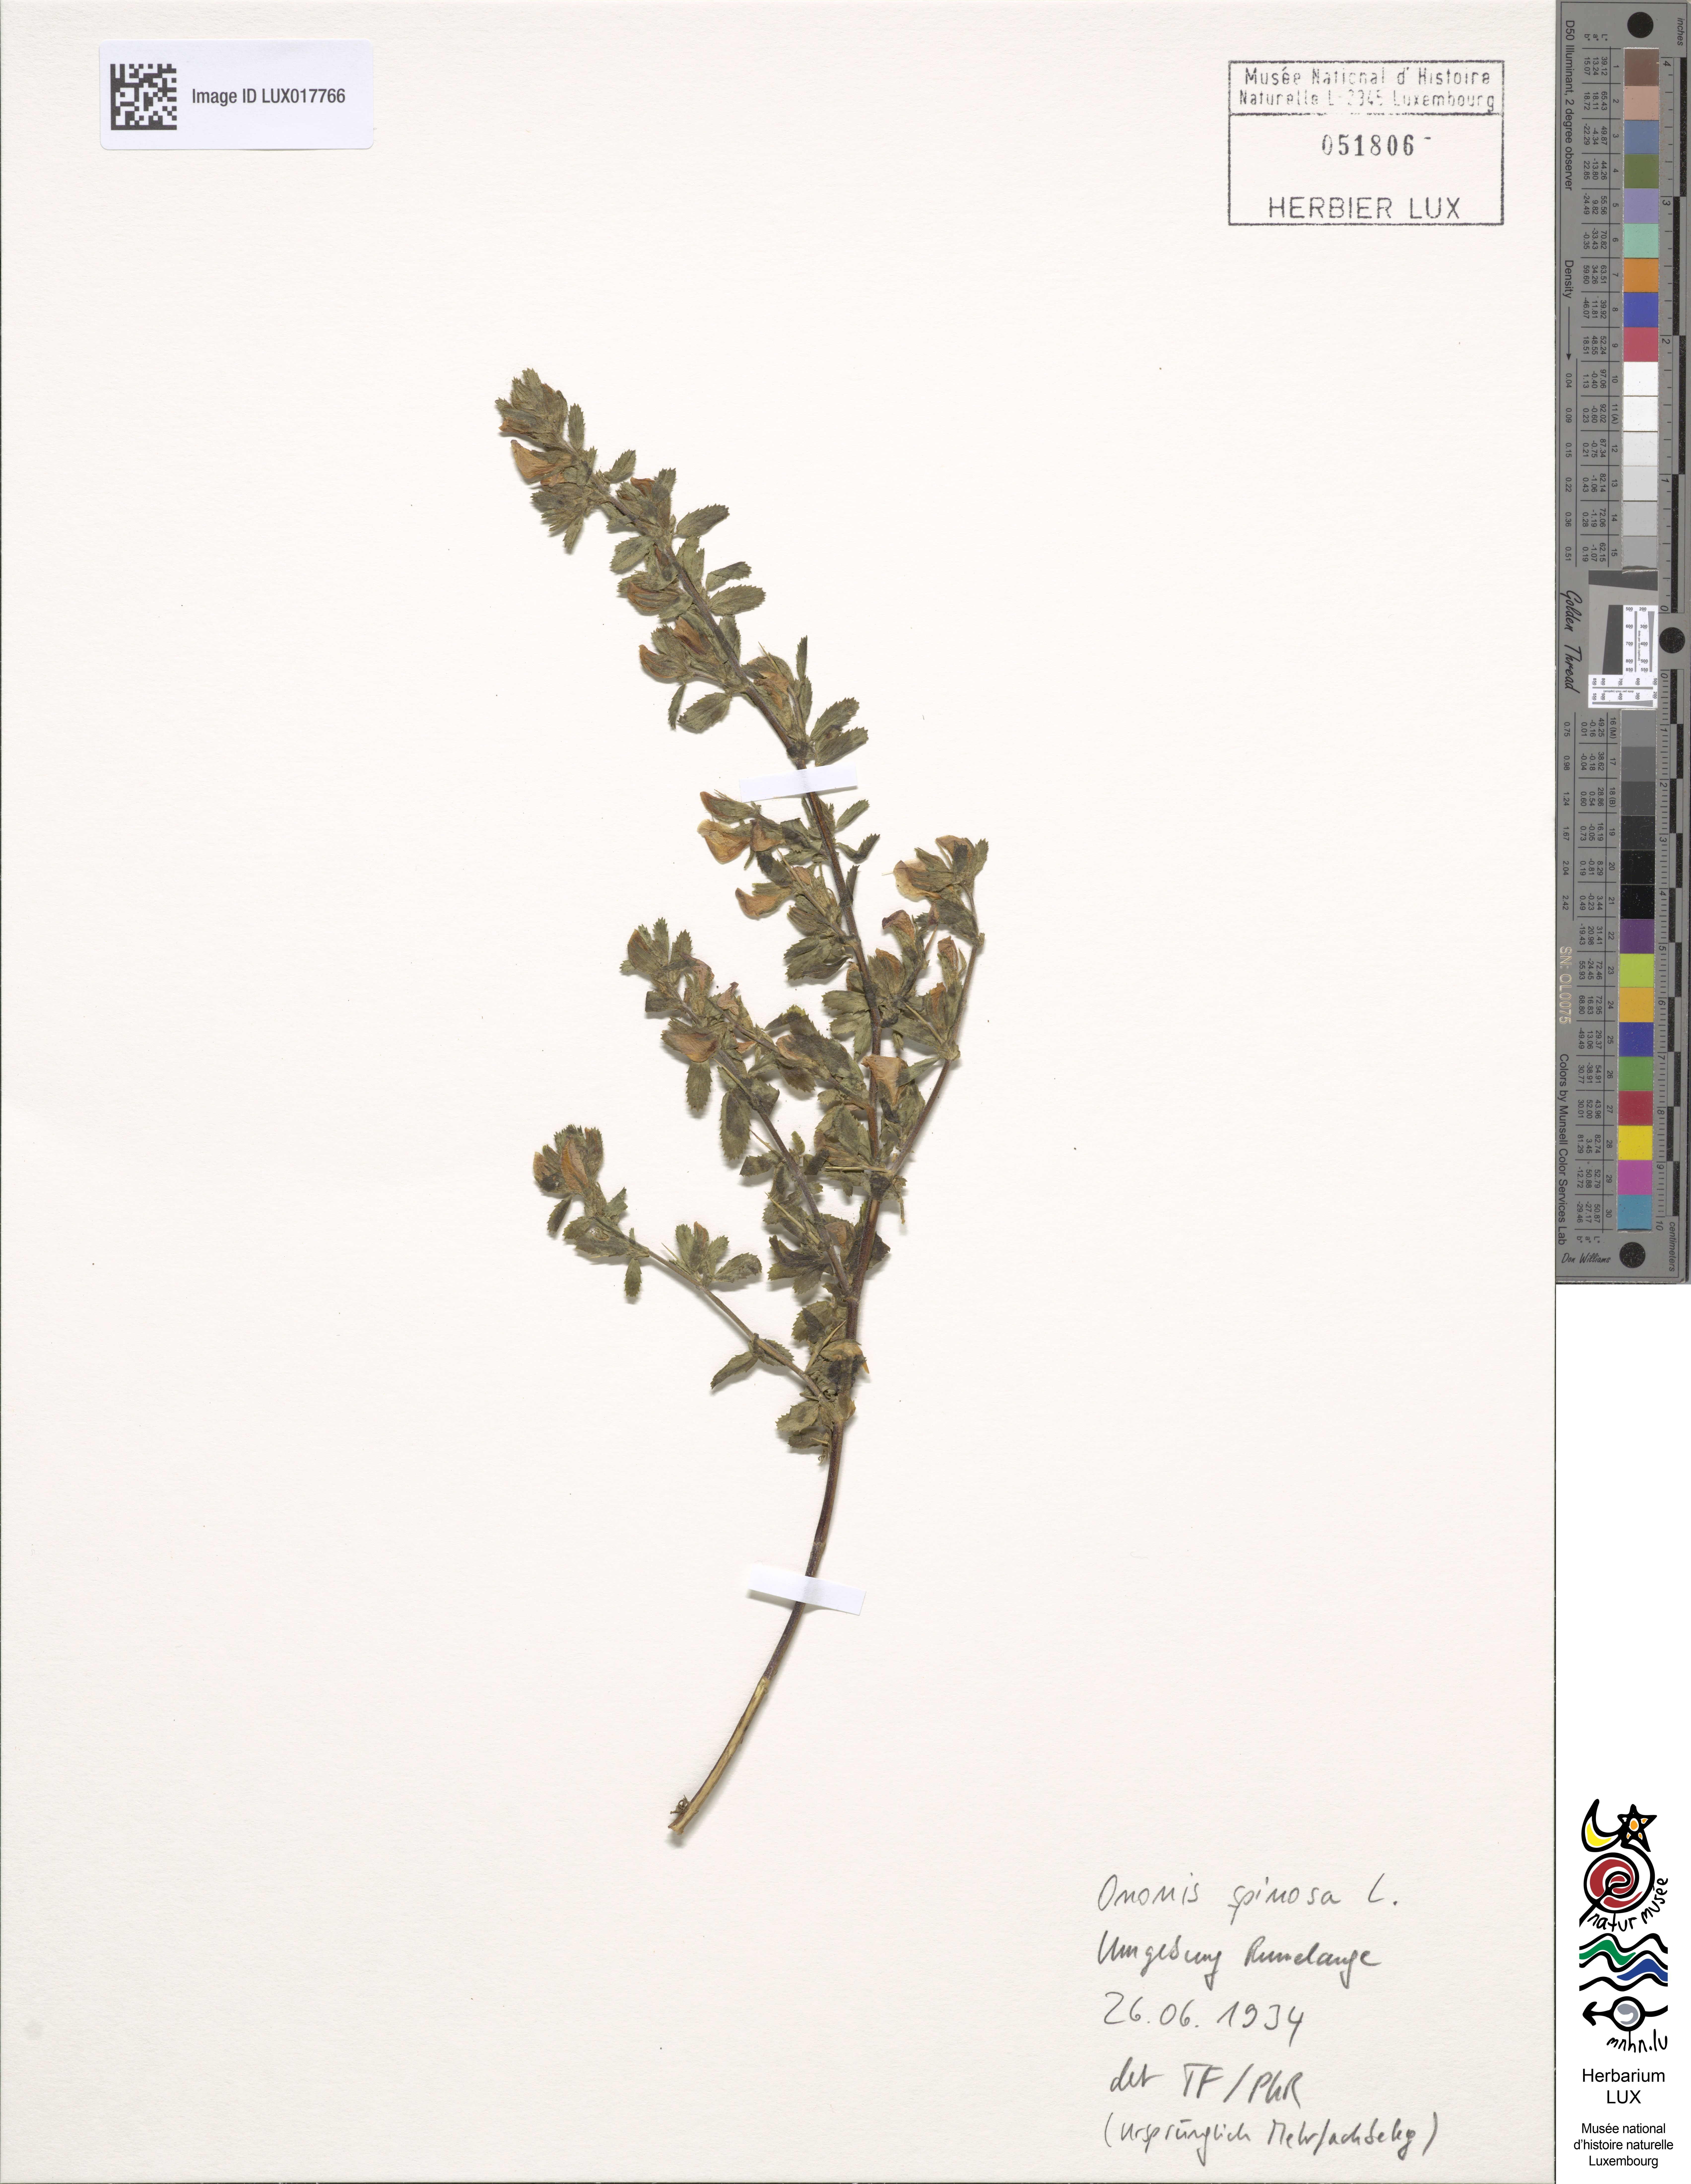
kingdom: Plantae
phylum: Tracheophyta
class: Magnoliopsida
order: Fabales
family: Fabaceae
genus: Ononis
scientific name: Ononis spinosa
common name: Spiny restharrow
